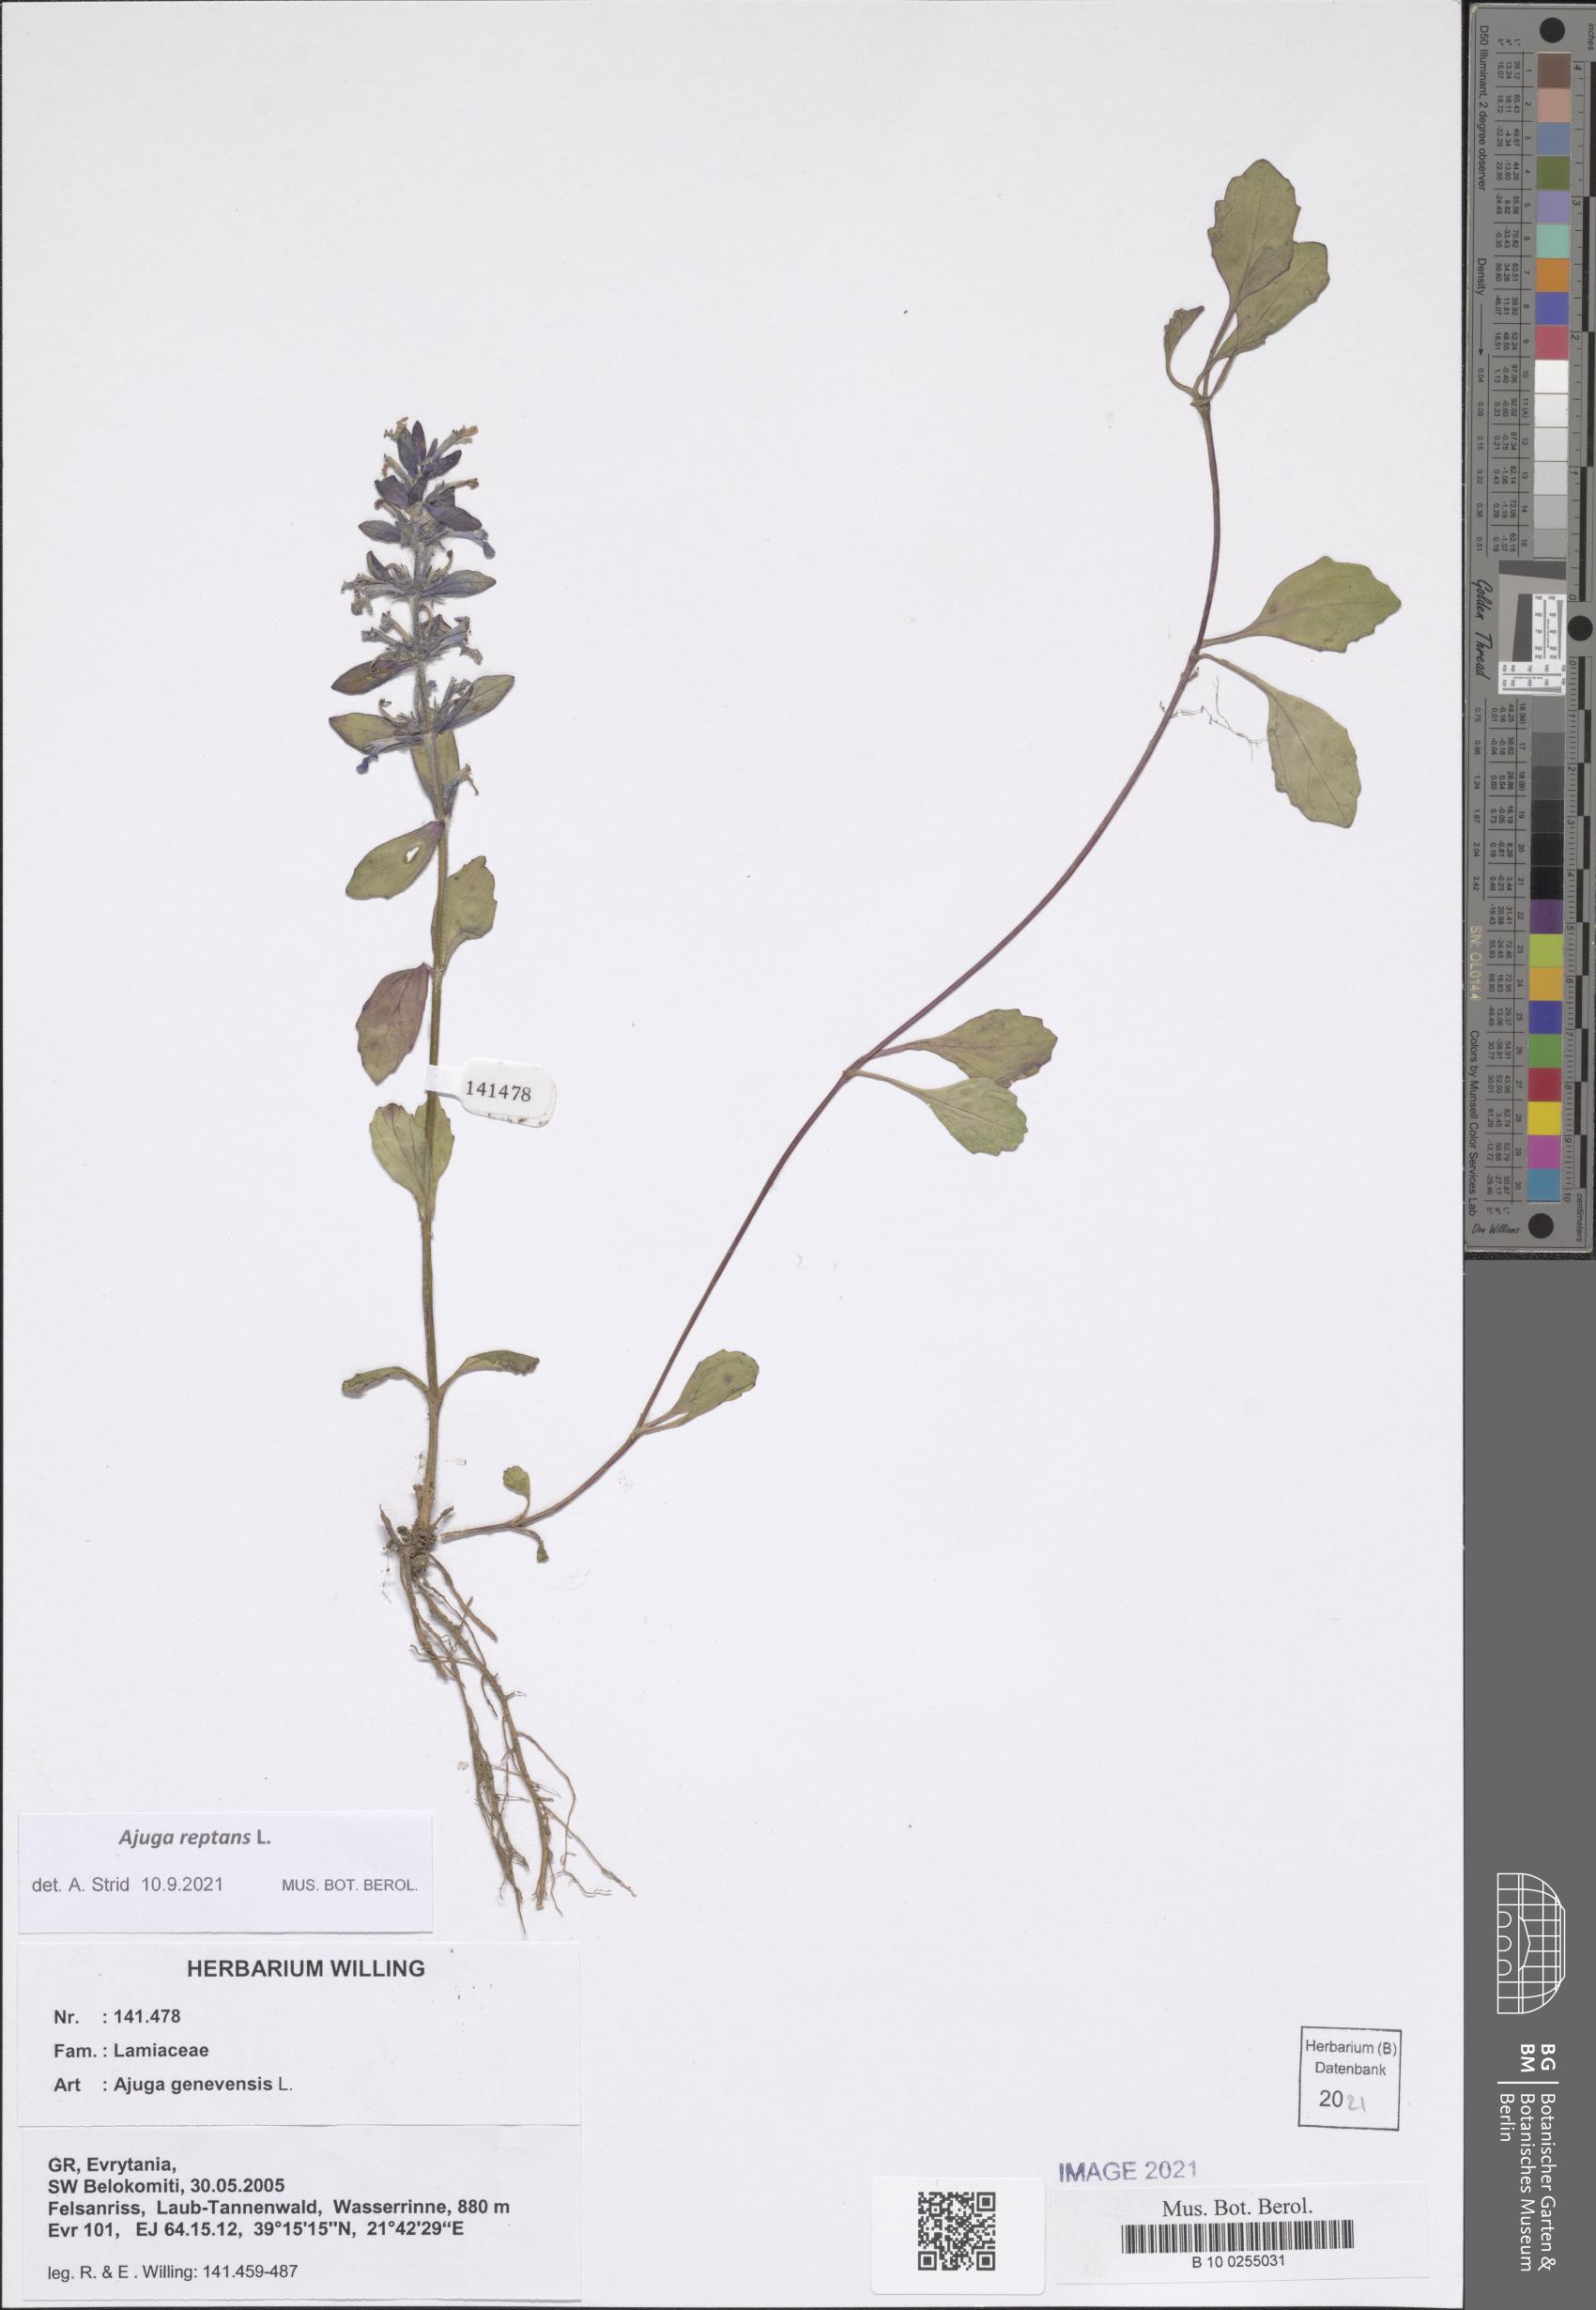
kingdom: Plantae
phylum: Tracheophyta
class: Magnoliopsida
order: Lamiales
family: Lamiaceae
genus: Ajuga
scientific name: Ajuga reptans
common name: Bugle
